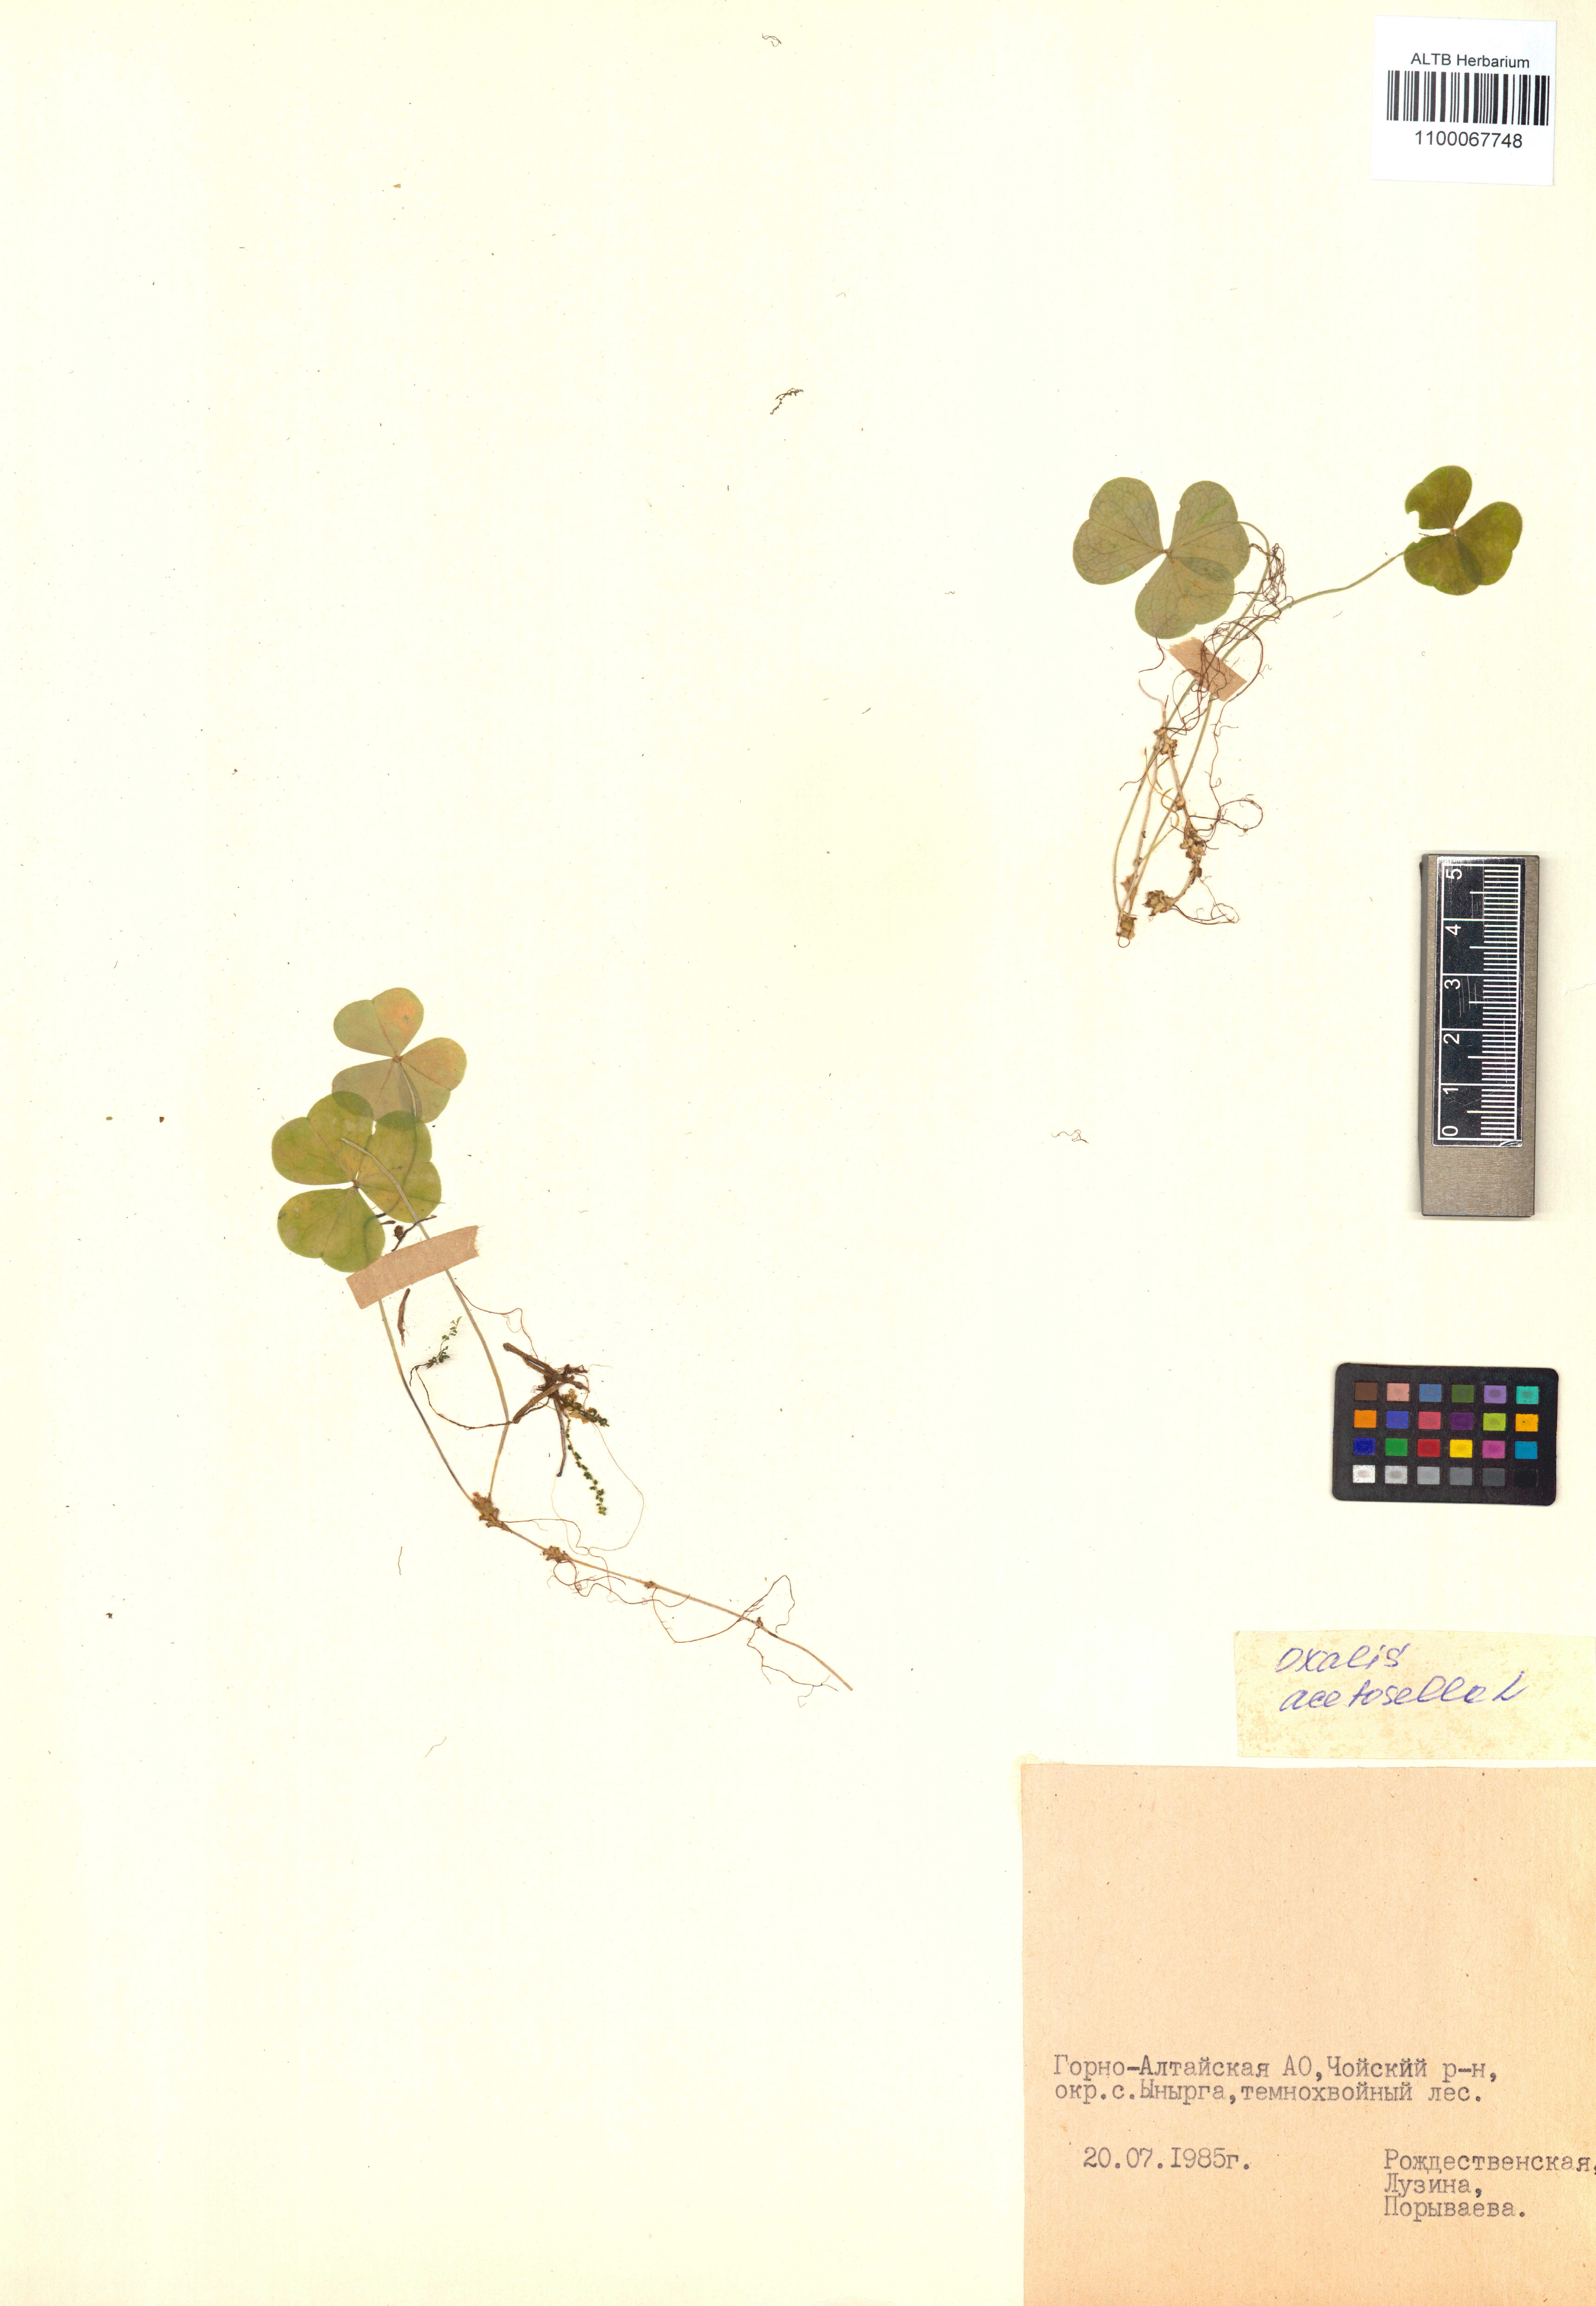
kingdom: Plantae
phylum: Tracheophyta
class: Magnoliopsida
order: Oxalidales
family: Oxalidaceae
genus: Oxalis
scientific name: Oxalis acetosella
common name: Wood-sorrel
